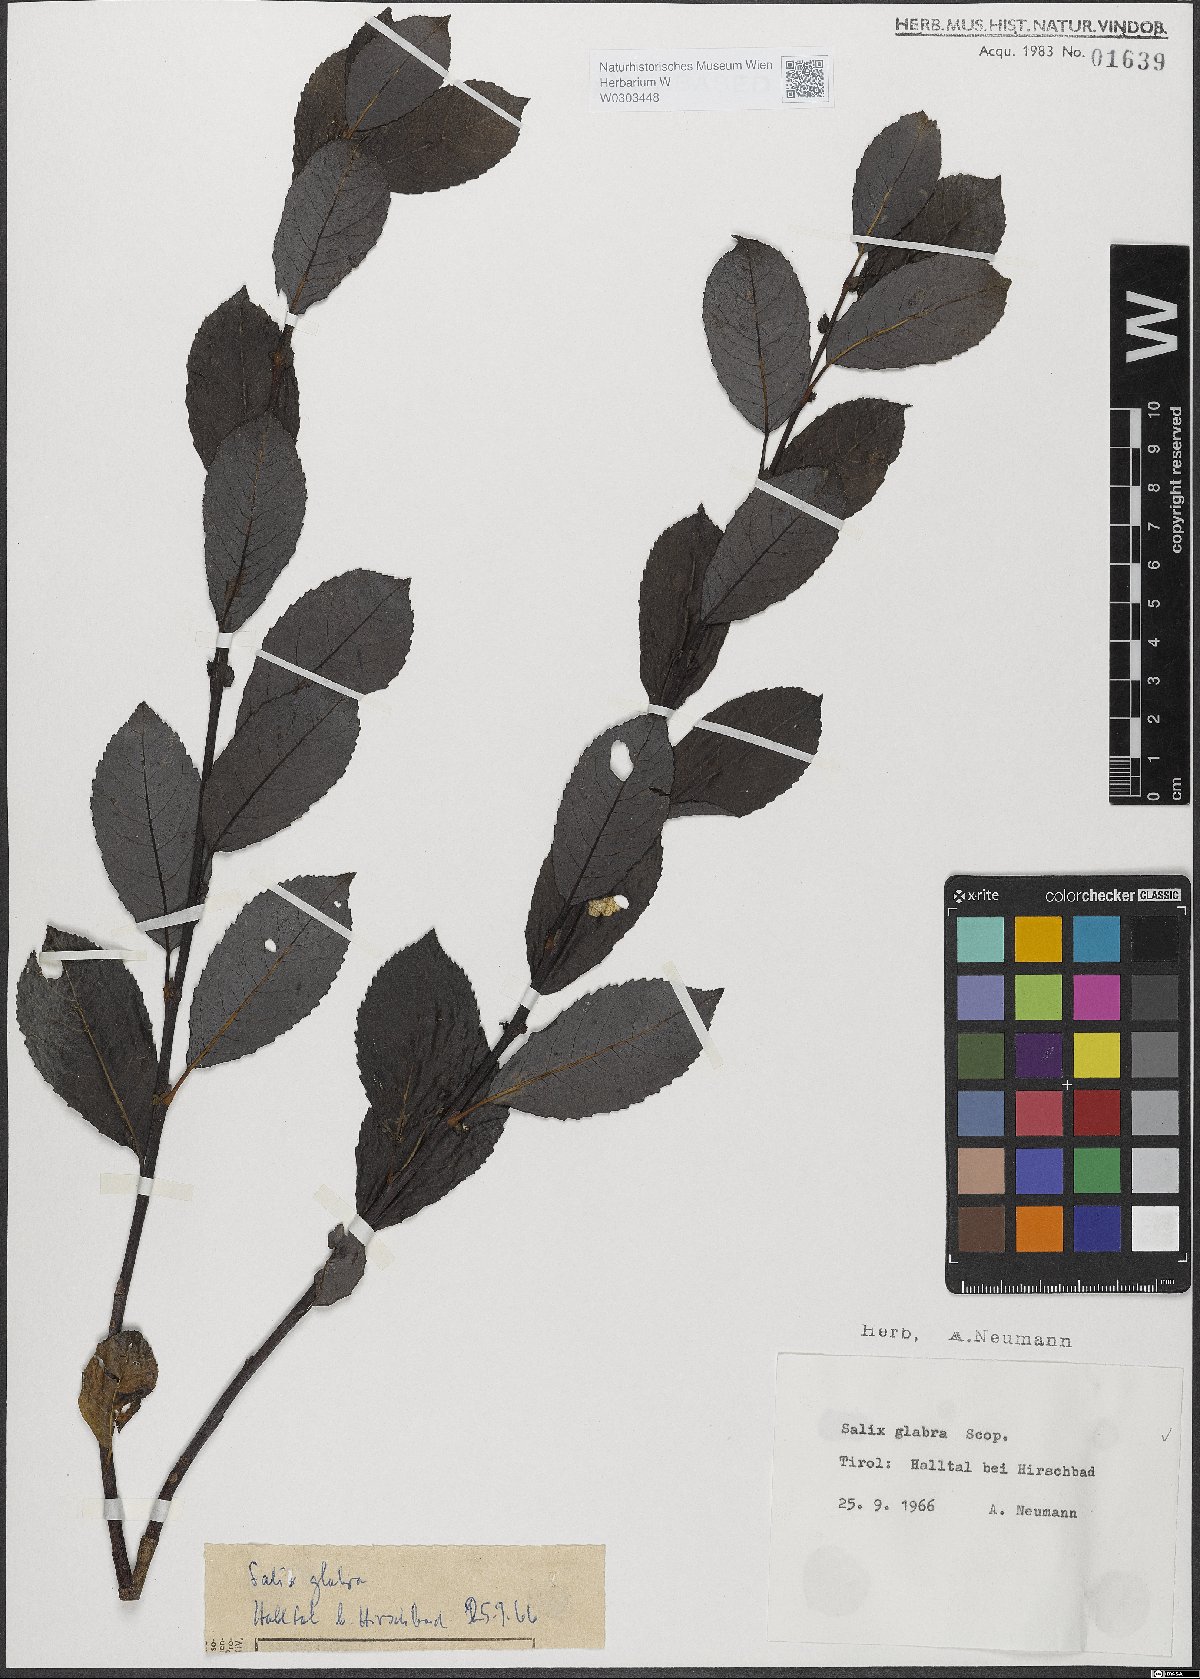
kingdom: Plantae
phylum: Tracheophyta
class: Magnoliopsida
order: Malpighiales
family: Salicaceae
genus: Salix
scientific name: Salix glabra
